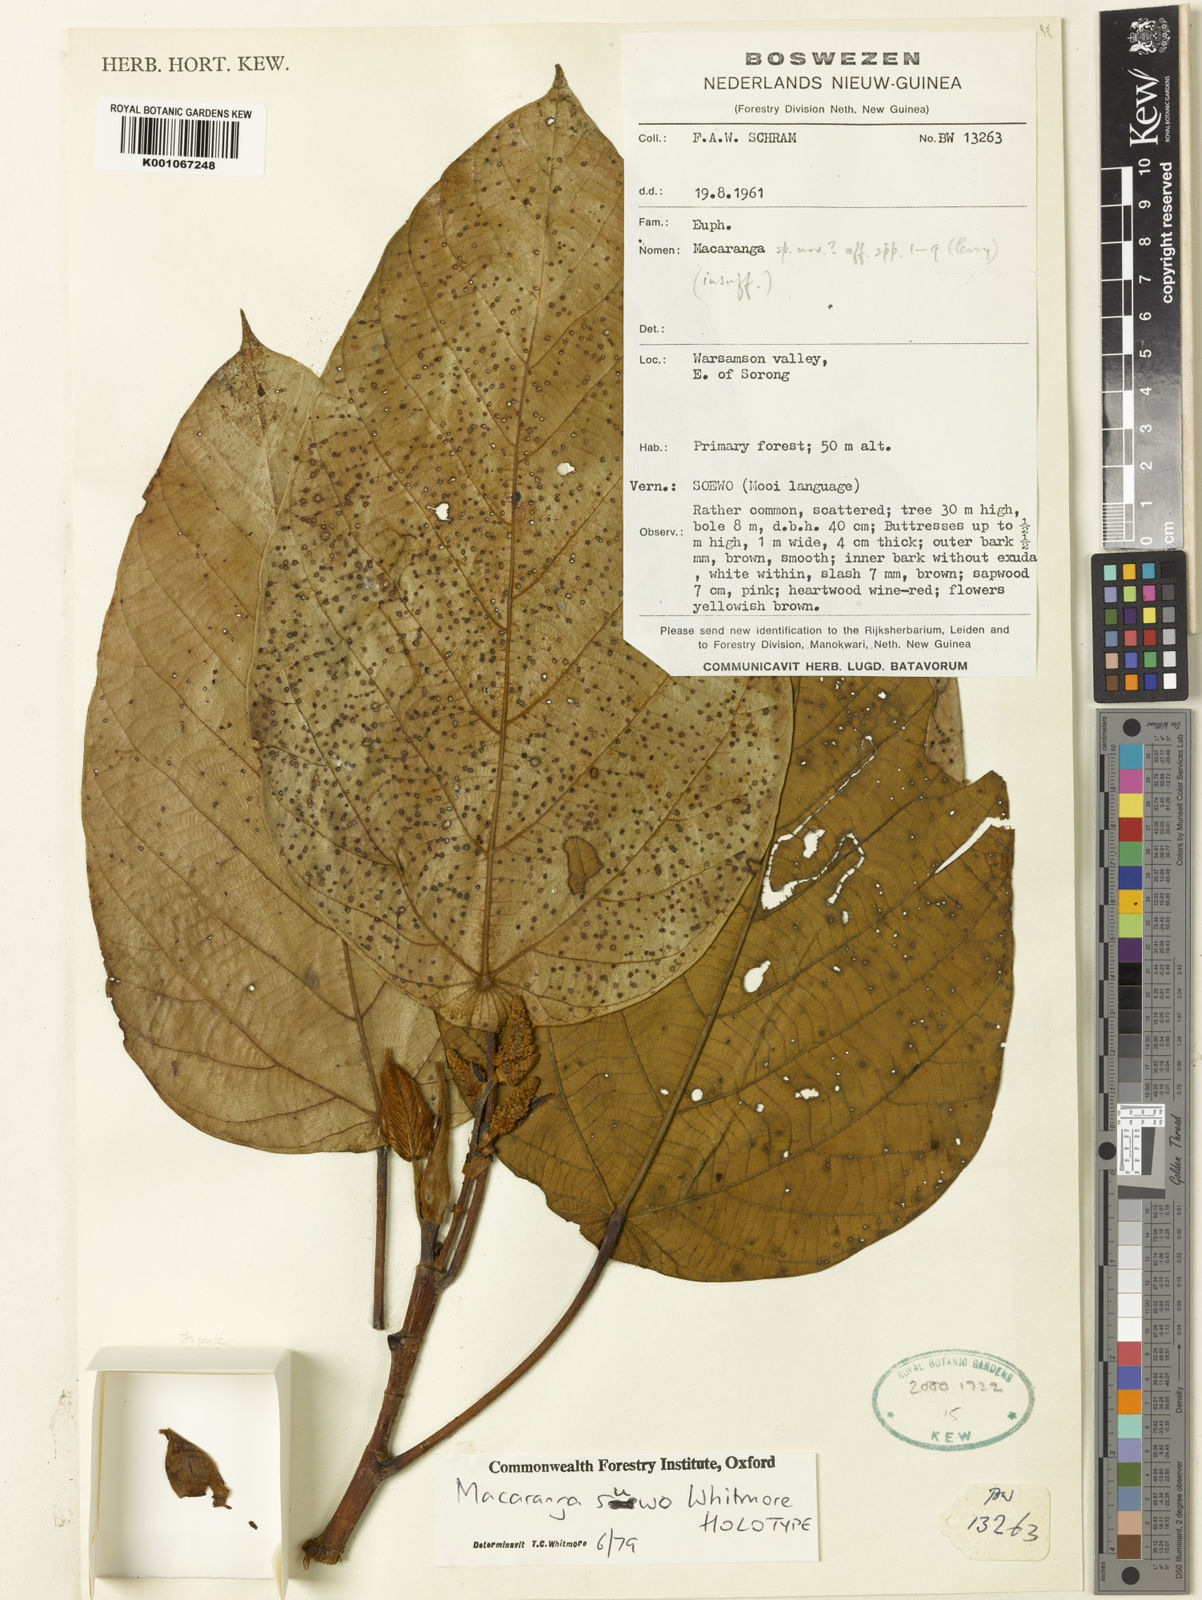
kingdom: Plantae
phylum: Tracheophyta
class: Magnoliopsida
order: Malpighiales
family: Euphorbiaceae
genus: Macaranga
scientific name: Macaranga suwo
